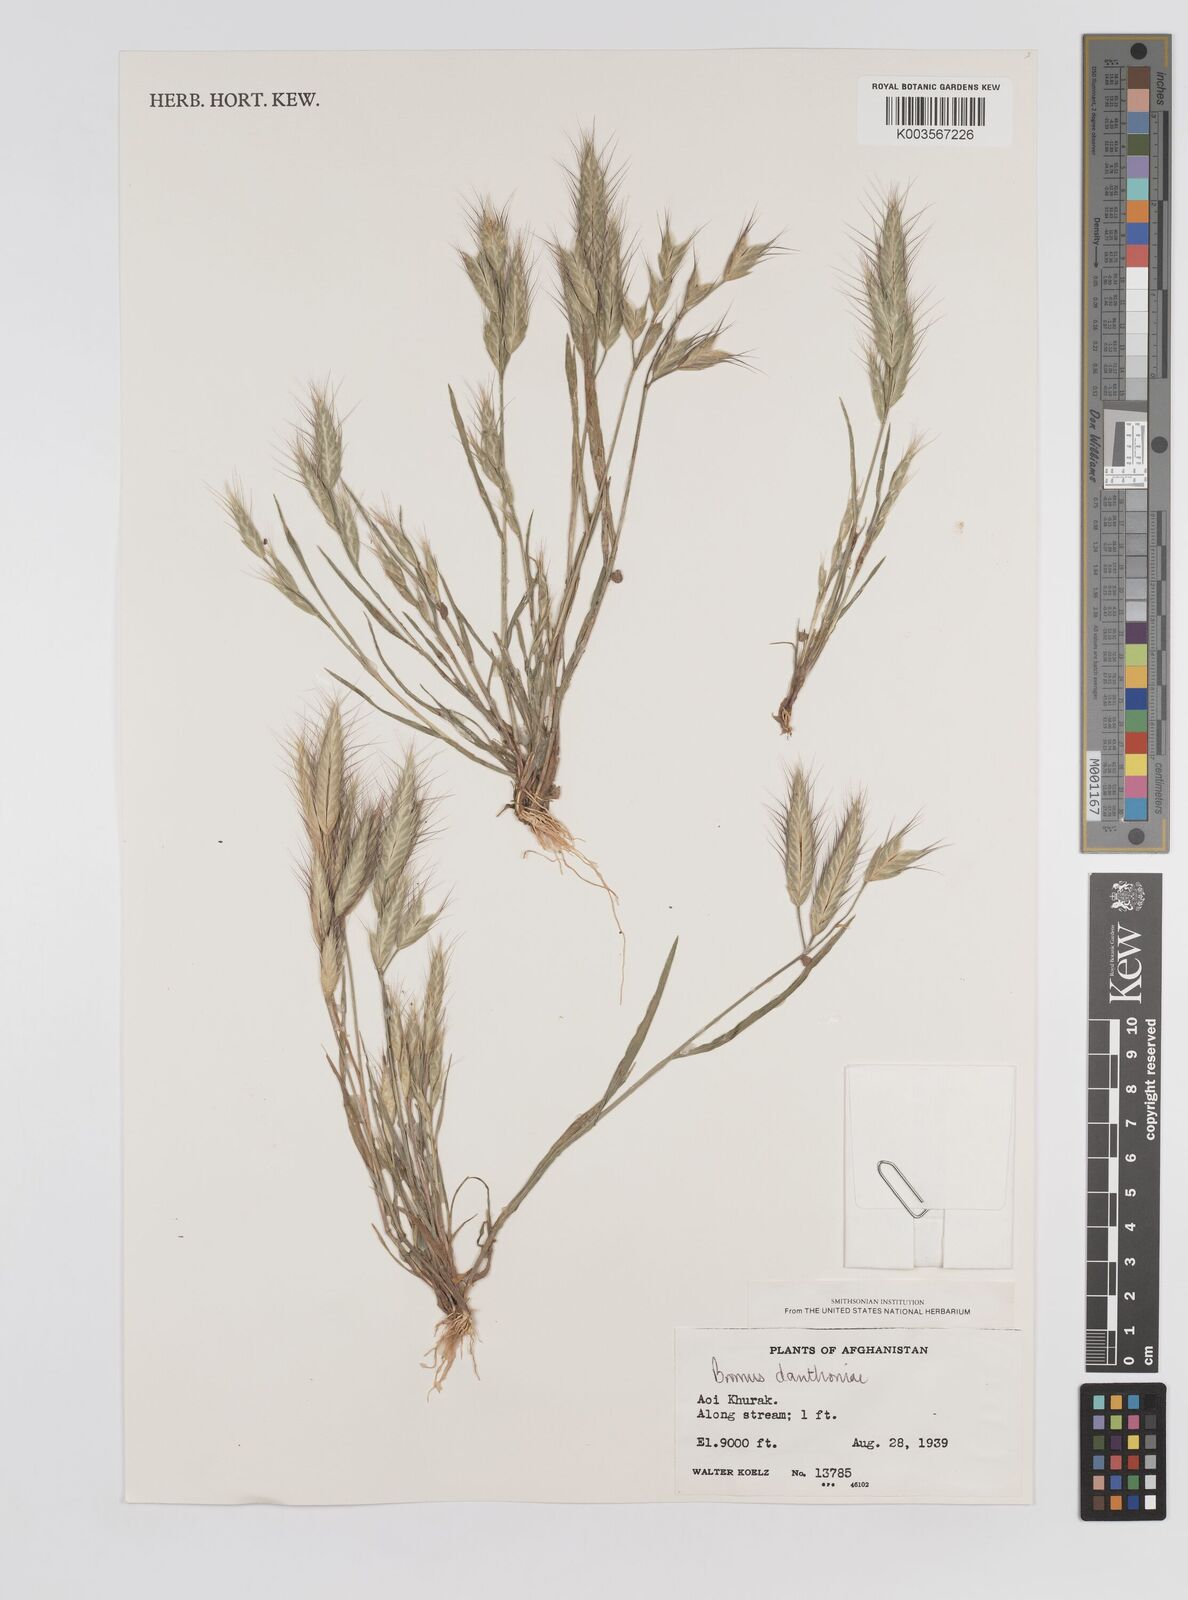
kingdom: Plantae
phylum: Tracheophyta
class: Liliopsida
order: Poales
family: Poaceae
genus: Bromus
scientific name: Bromus danthoniae
